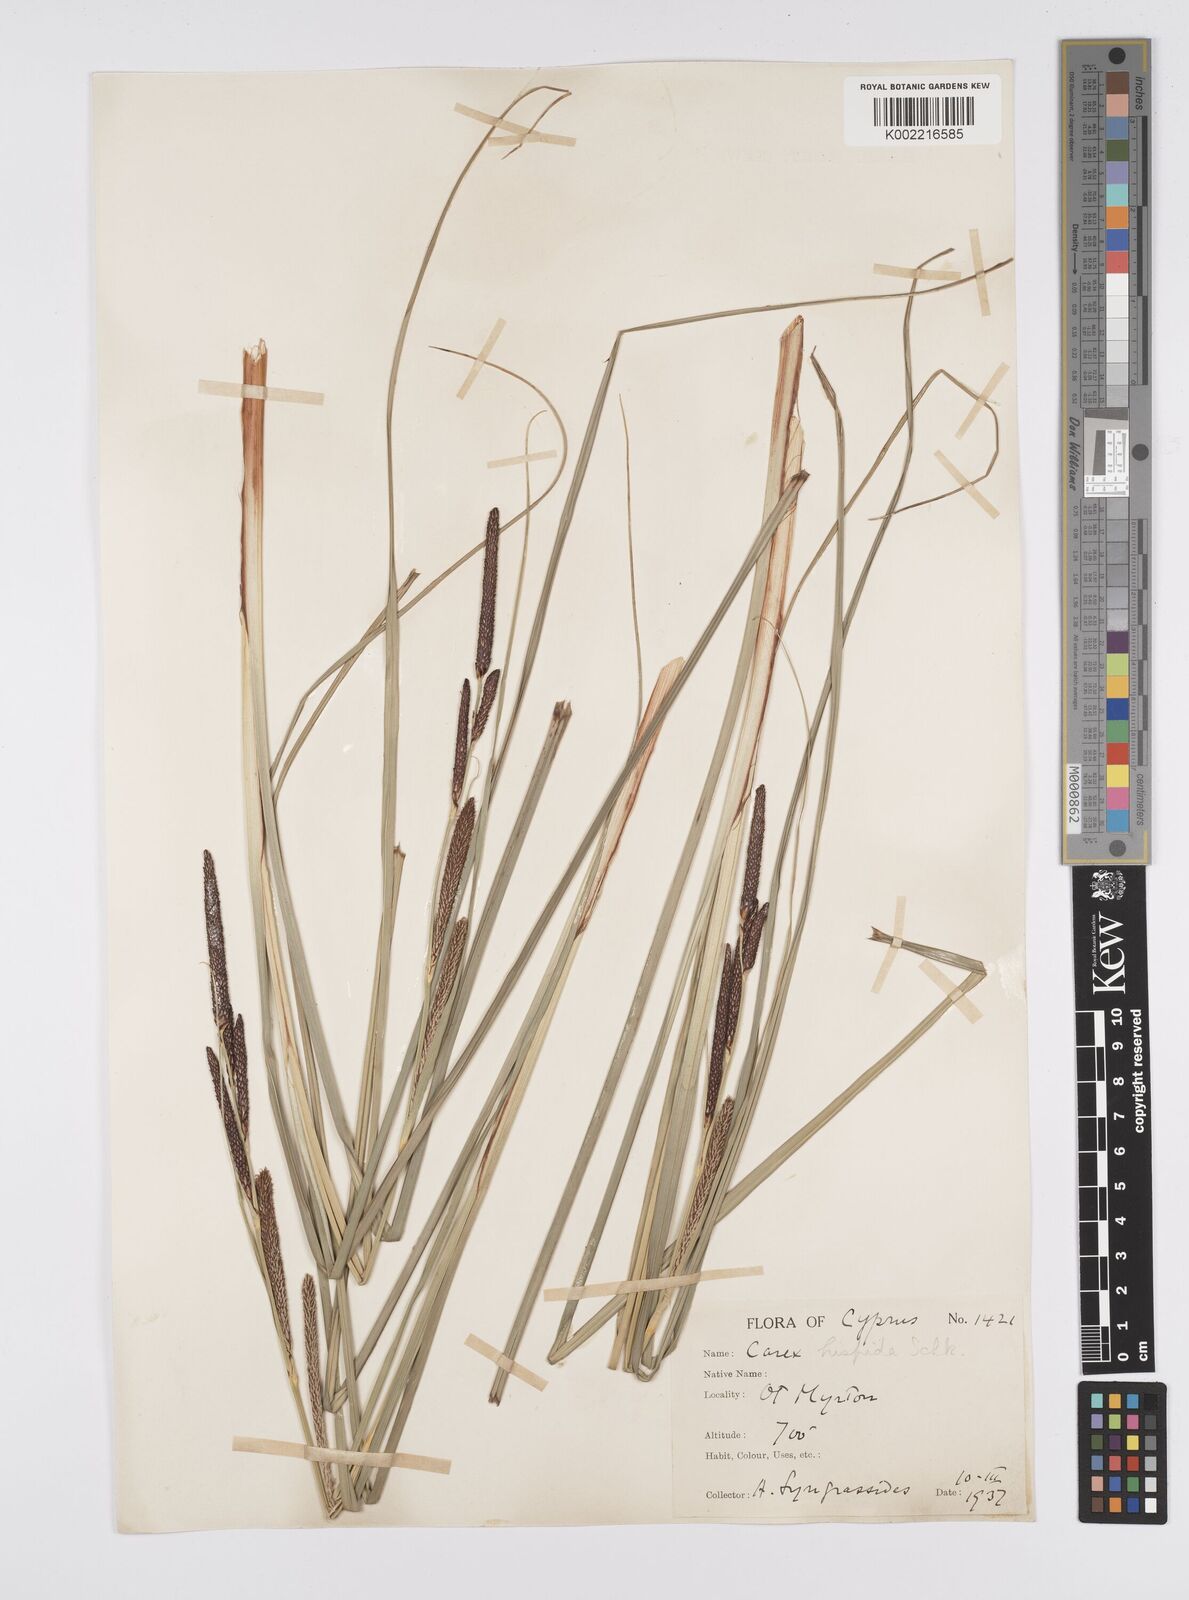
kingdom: Plantae
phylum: Tracheophyta
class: Liliopsida
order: Poales
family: Cyperaceae
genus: Carex
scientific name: Carex hispida
